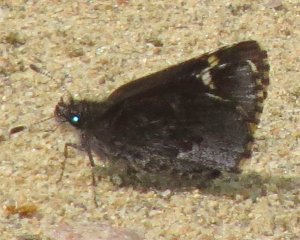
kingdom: Animalia
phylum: Arthropoda
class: Insecta
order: Lepidoptera
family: Hesperiidae
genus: Mastor
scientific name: Mastor vialis
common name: Common Roadside-Skipper
